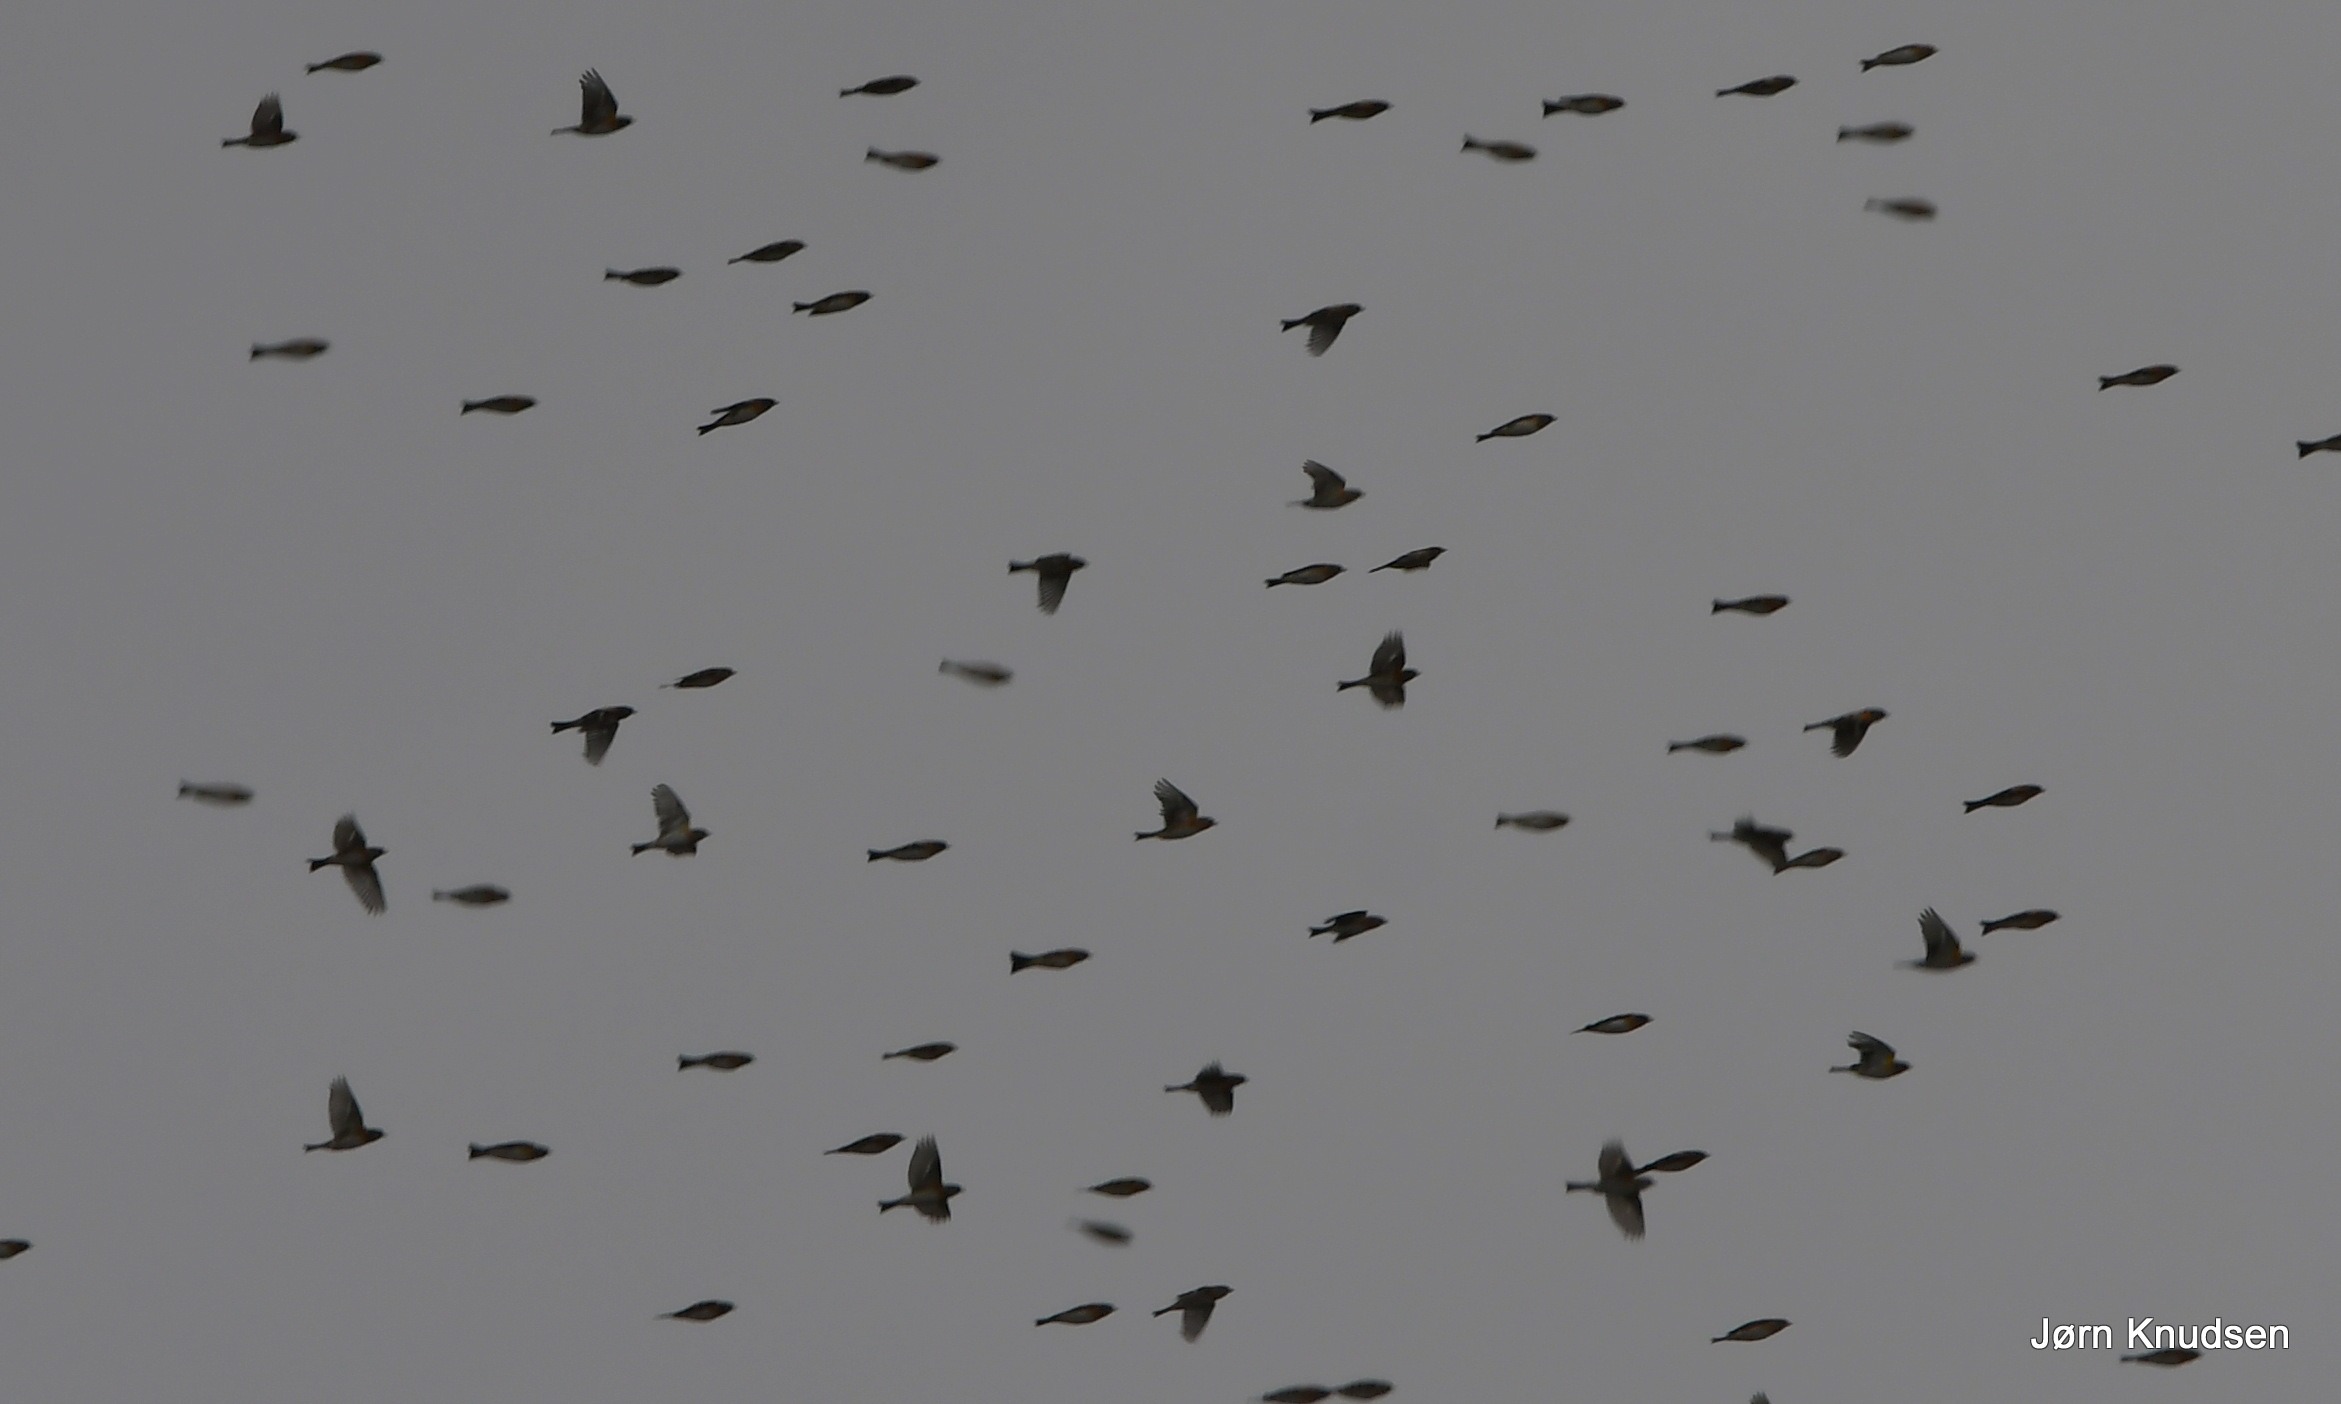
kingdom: Animalia
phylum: Chordata
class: Aves
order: Passeriformes
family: Fringillidae
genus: Fringilla
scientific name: Fringilla montifringilla
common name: Kvækerfinke
